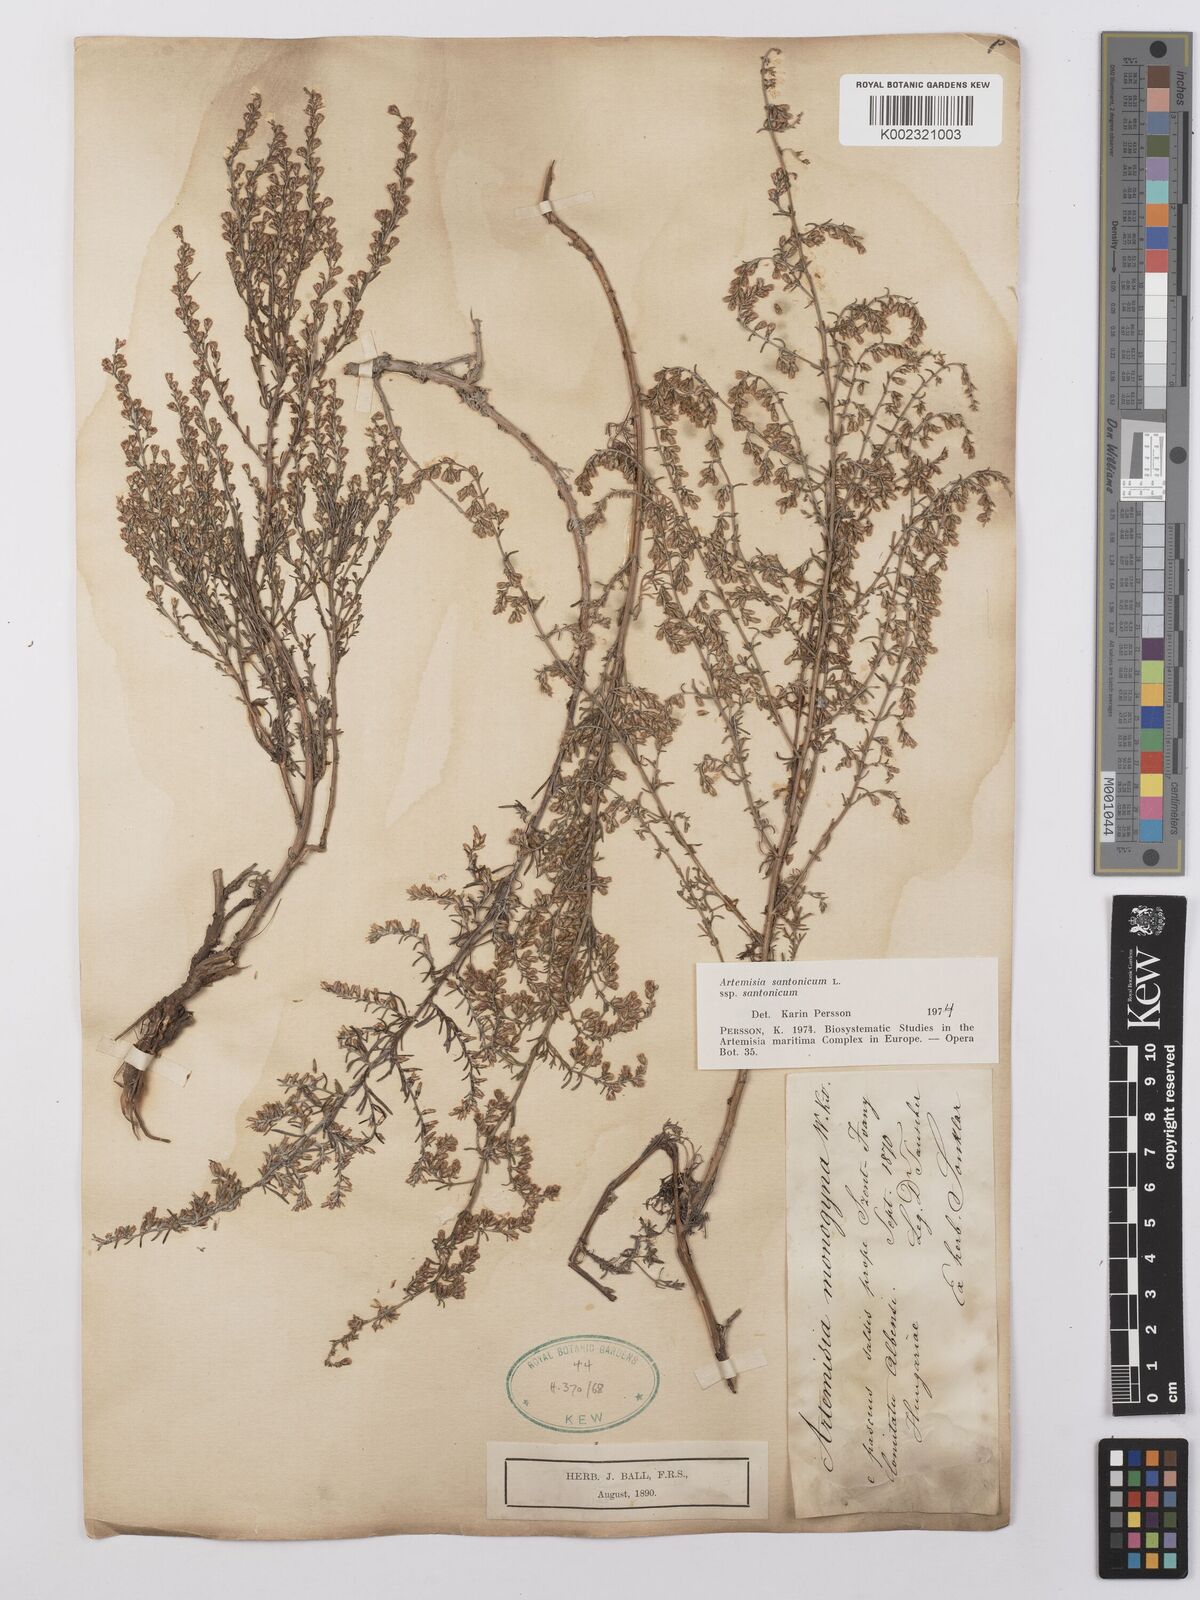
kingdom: Plantae
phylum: Tracheophyta
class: Magnoliopsida
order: Asterales
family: Asteraceae
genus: Artemisia
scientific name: Artemisia santolina
